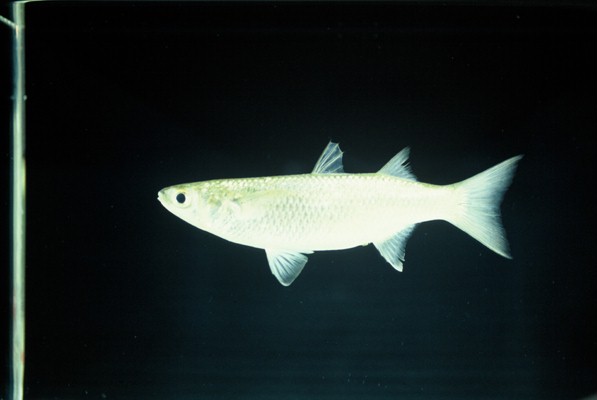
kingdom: Animalia
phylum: Chordata
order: Mugiliformes
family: Mugilidae
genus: Chelon
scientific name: Chelon dumerili
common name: Groovy mullet
